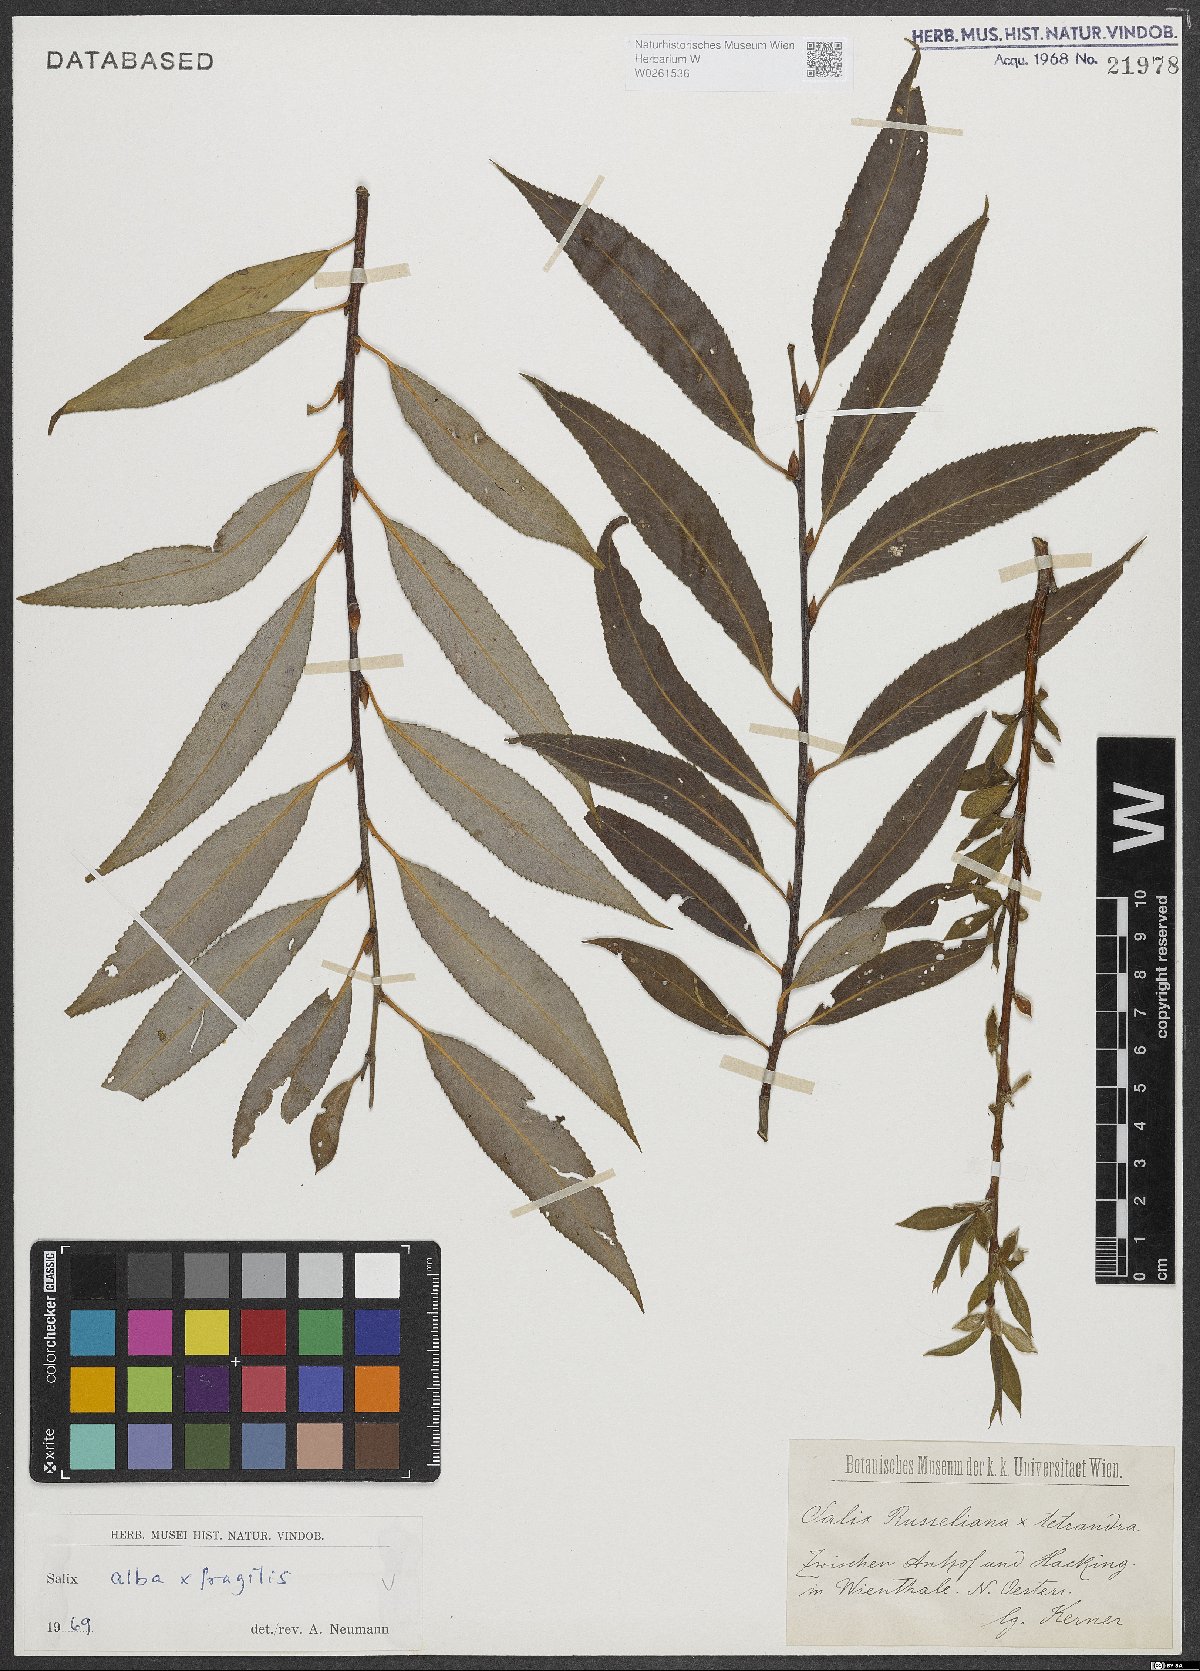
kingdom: Plantae
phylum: Tracheophyta
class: Magnoliopsida
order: Malpighiales
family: Salicaceae
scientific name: Salicaceae
